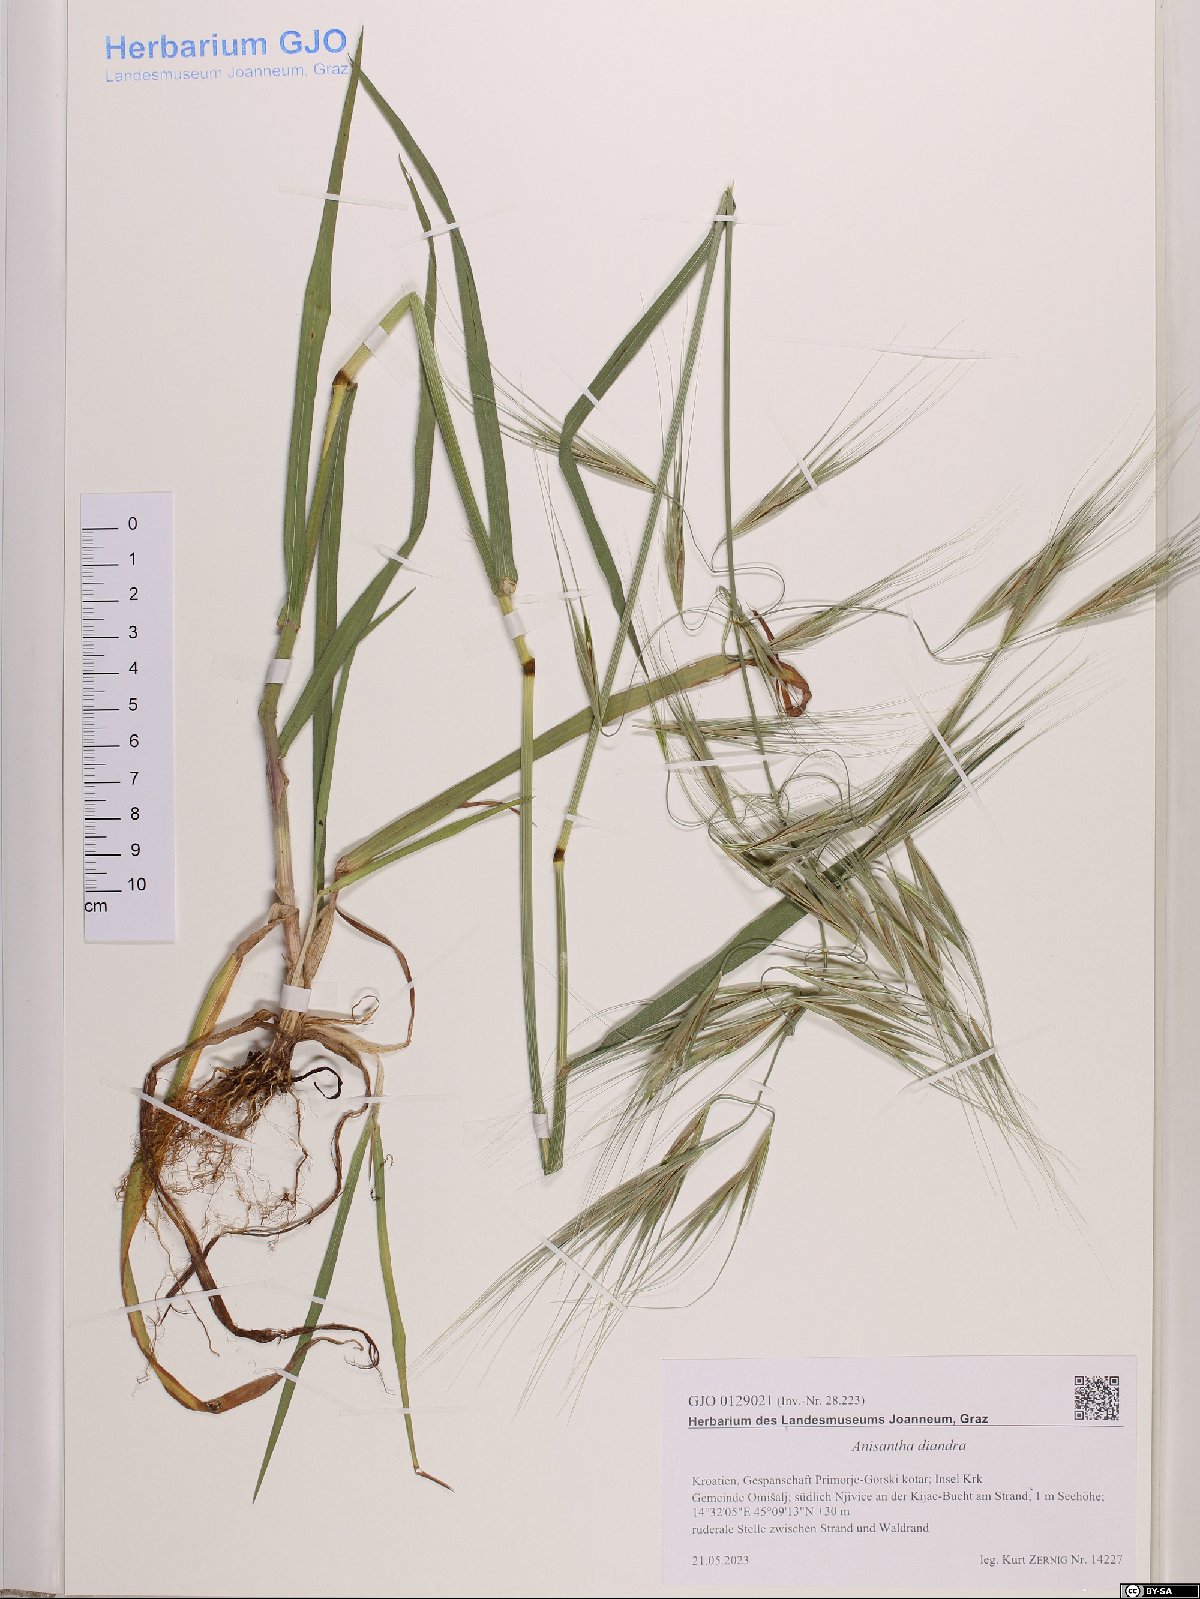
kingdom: Plantae
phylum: Tracheophyta
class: Liliopsida
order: Poales
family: Poaceae
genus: Bromus
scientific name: Bromus diandrus
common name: Ripgut brome
